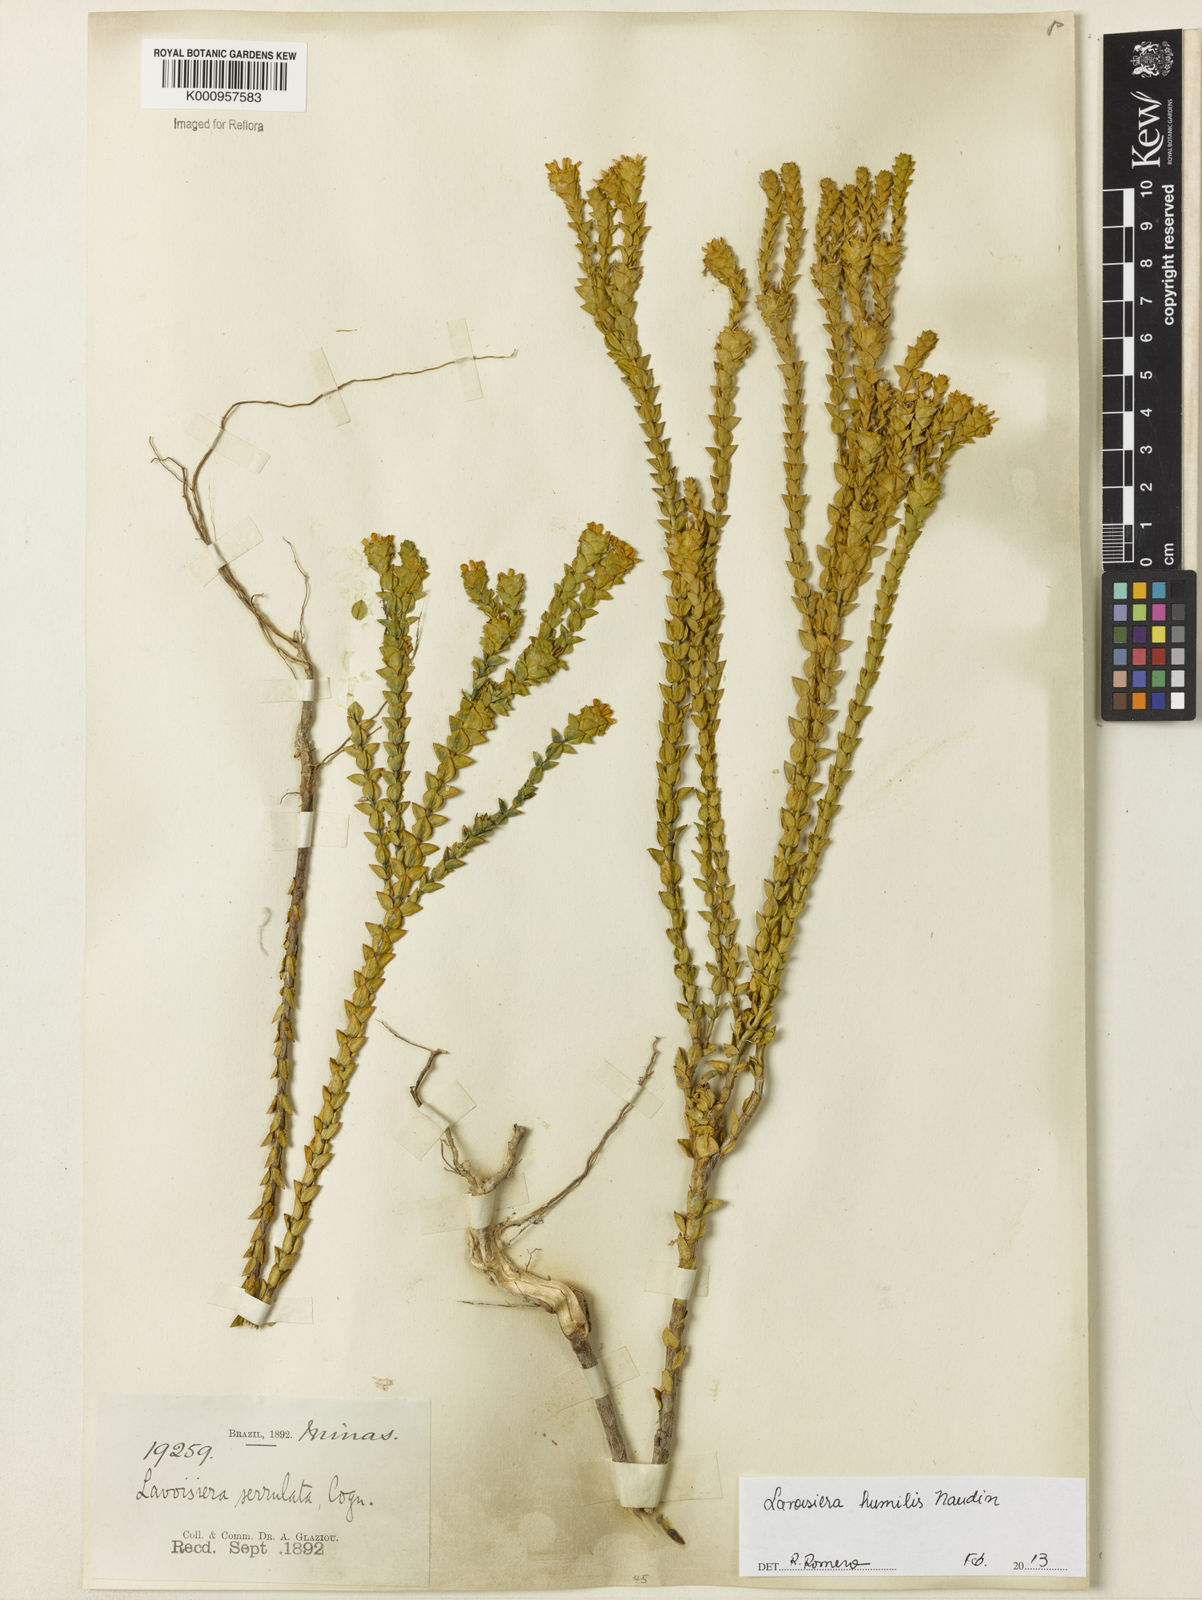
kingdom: Plantae
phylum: Tracheophyta
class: Magnoliopsida
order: Myrtales
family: Melastomataceae
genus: Microlicia
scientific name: Microlicia minor
